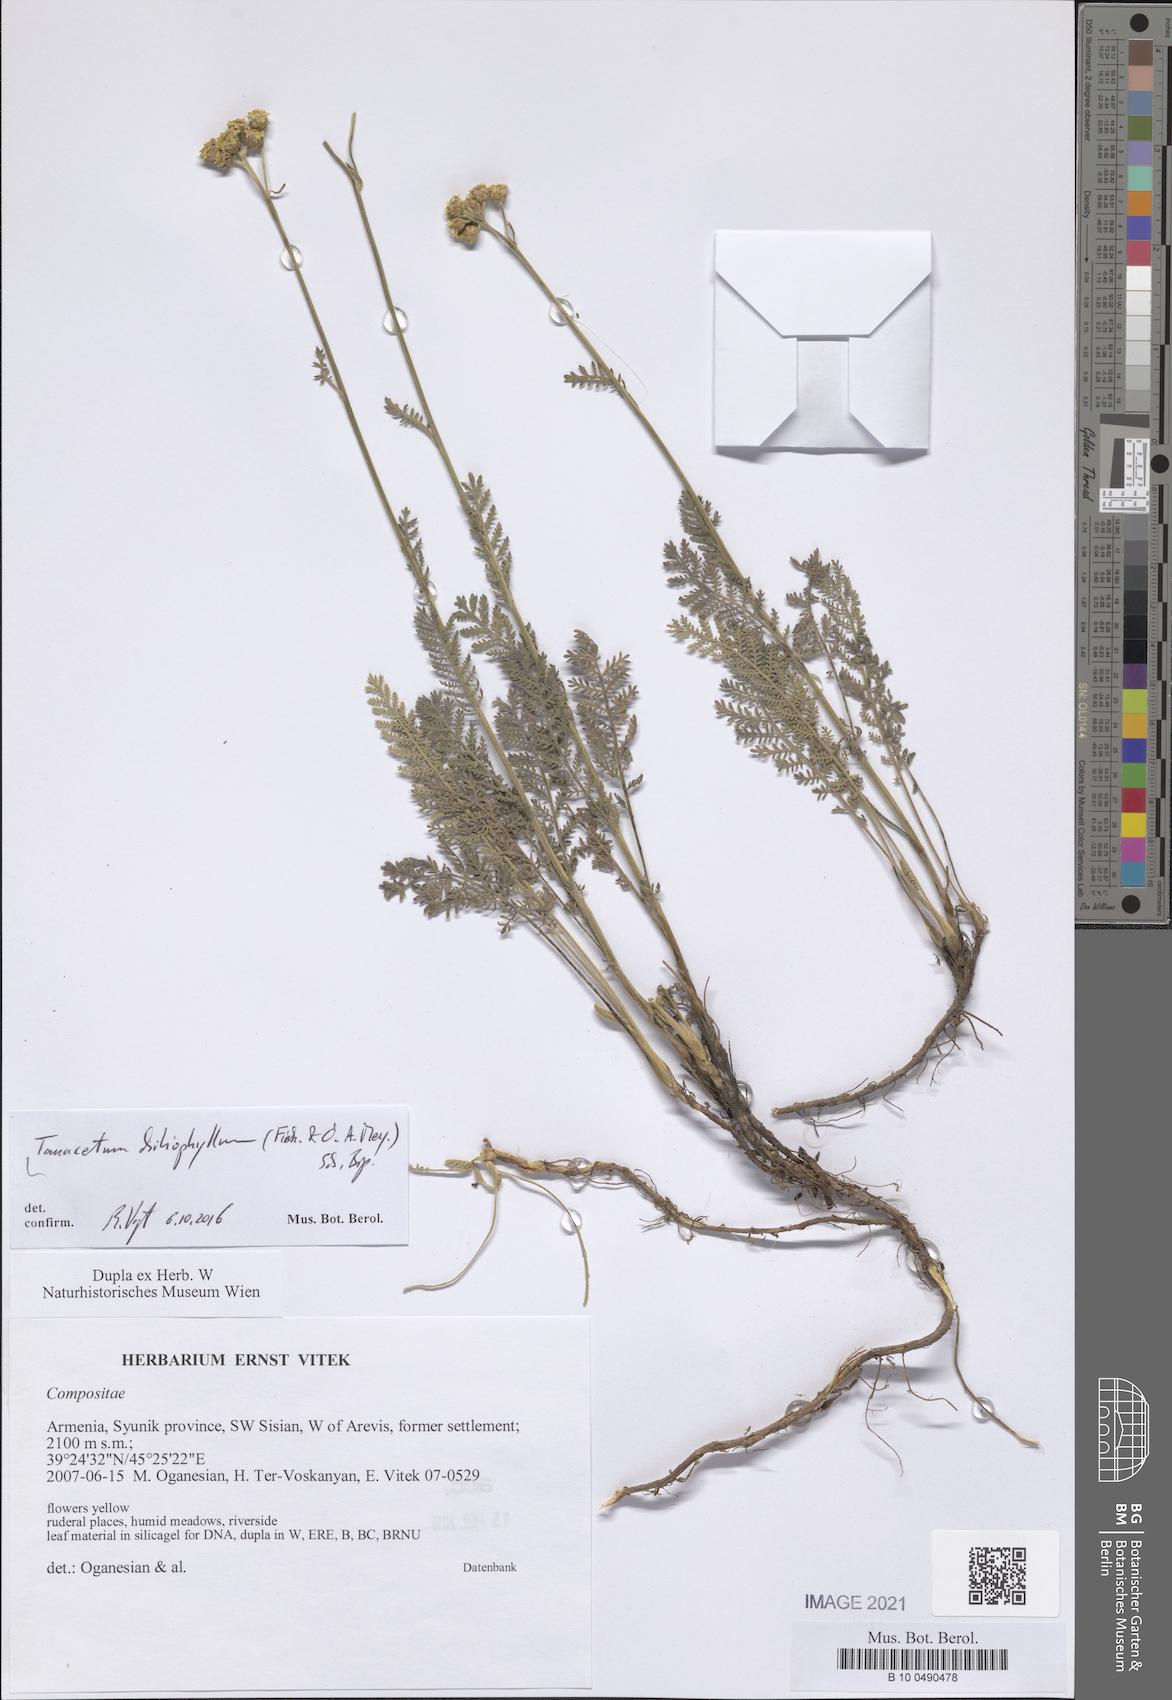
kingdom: Plantae
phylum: Tracheophyta
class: Magnoliopsida
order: Asterales
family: Asteraceae
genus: Tanacetum
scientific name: Tanacetum aureum
